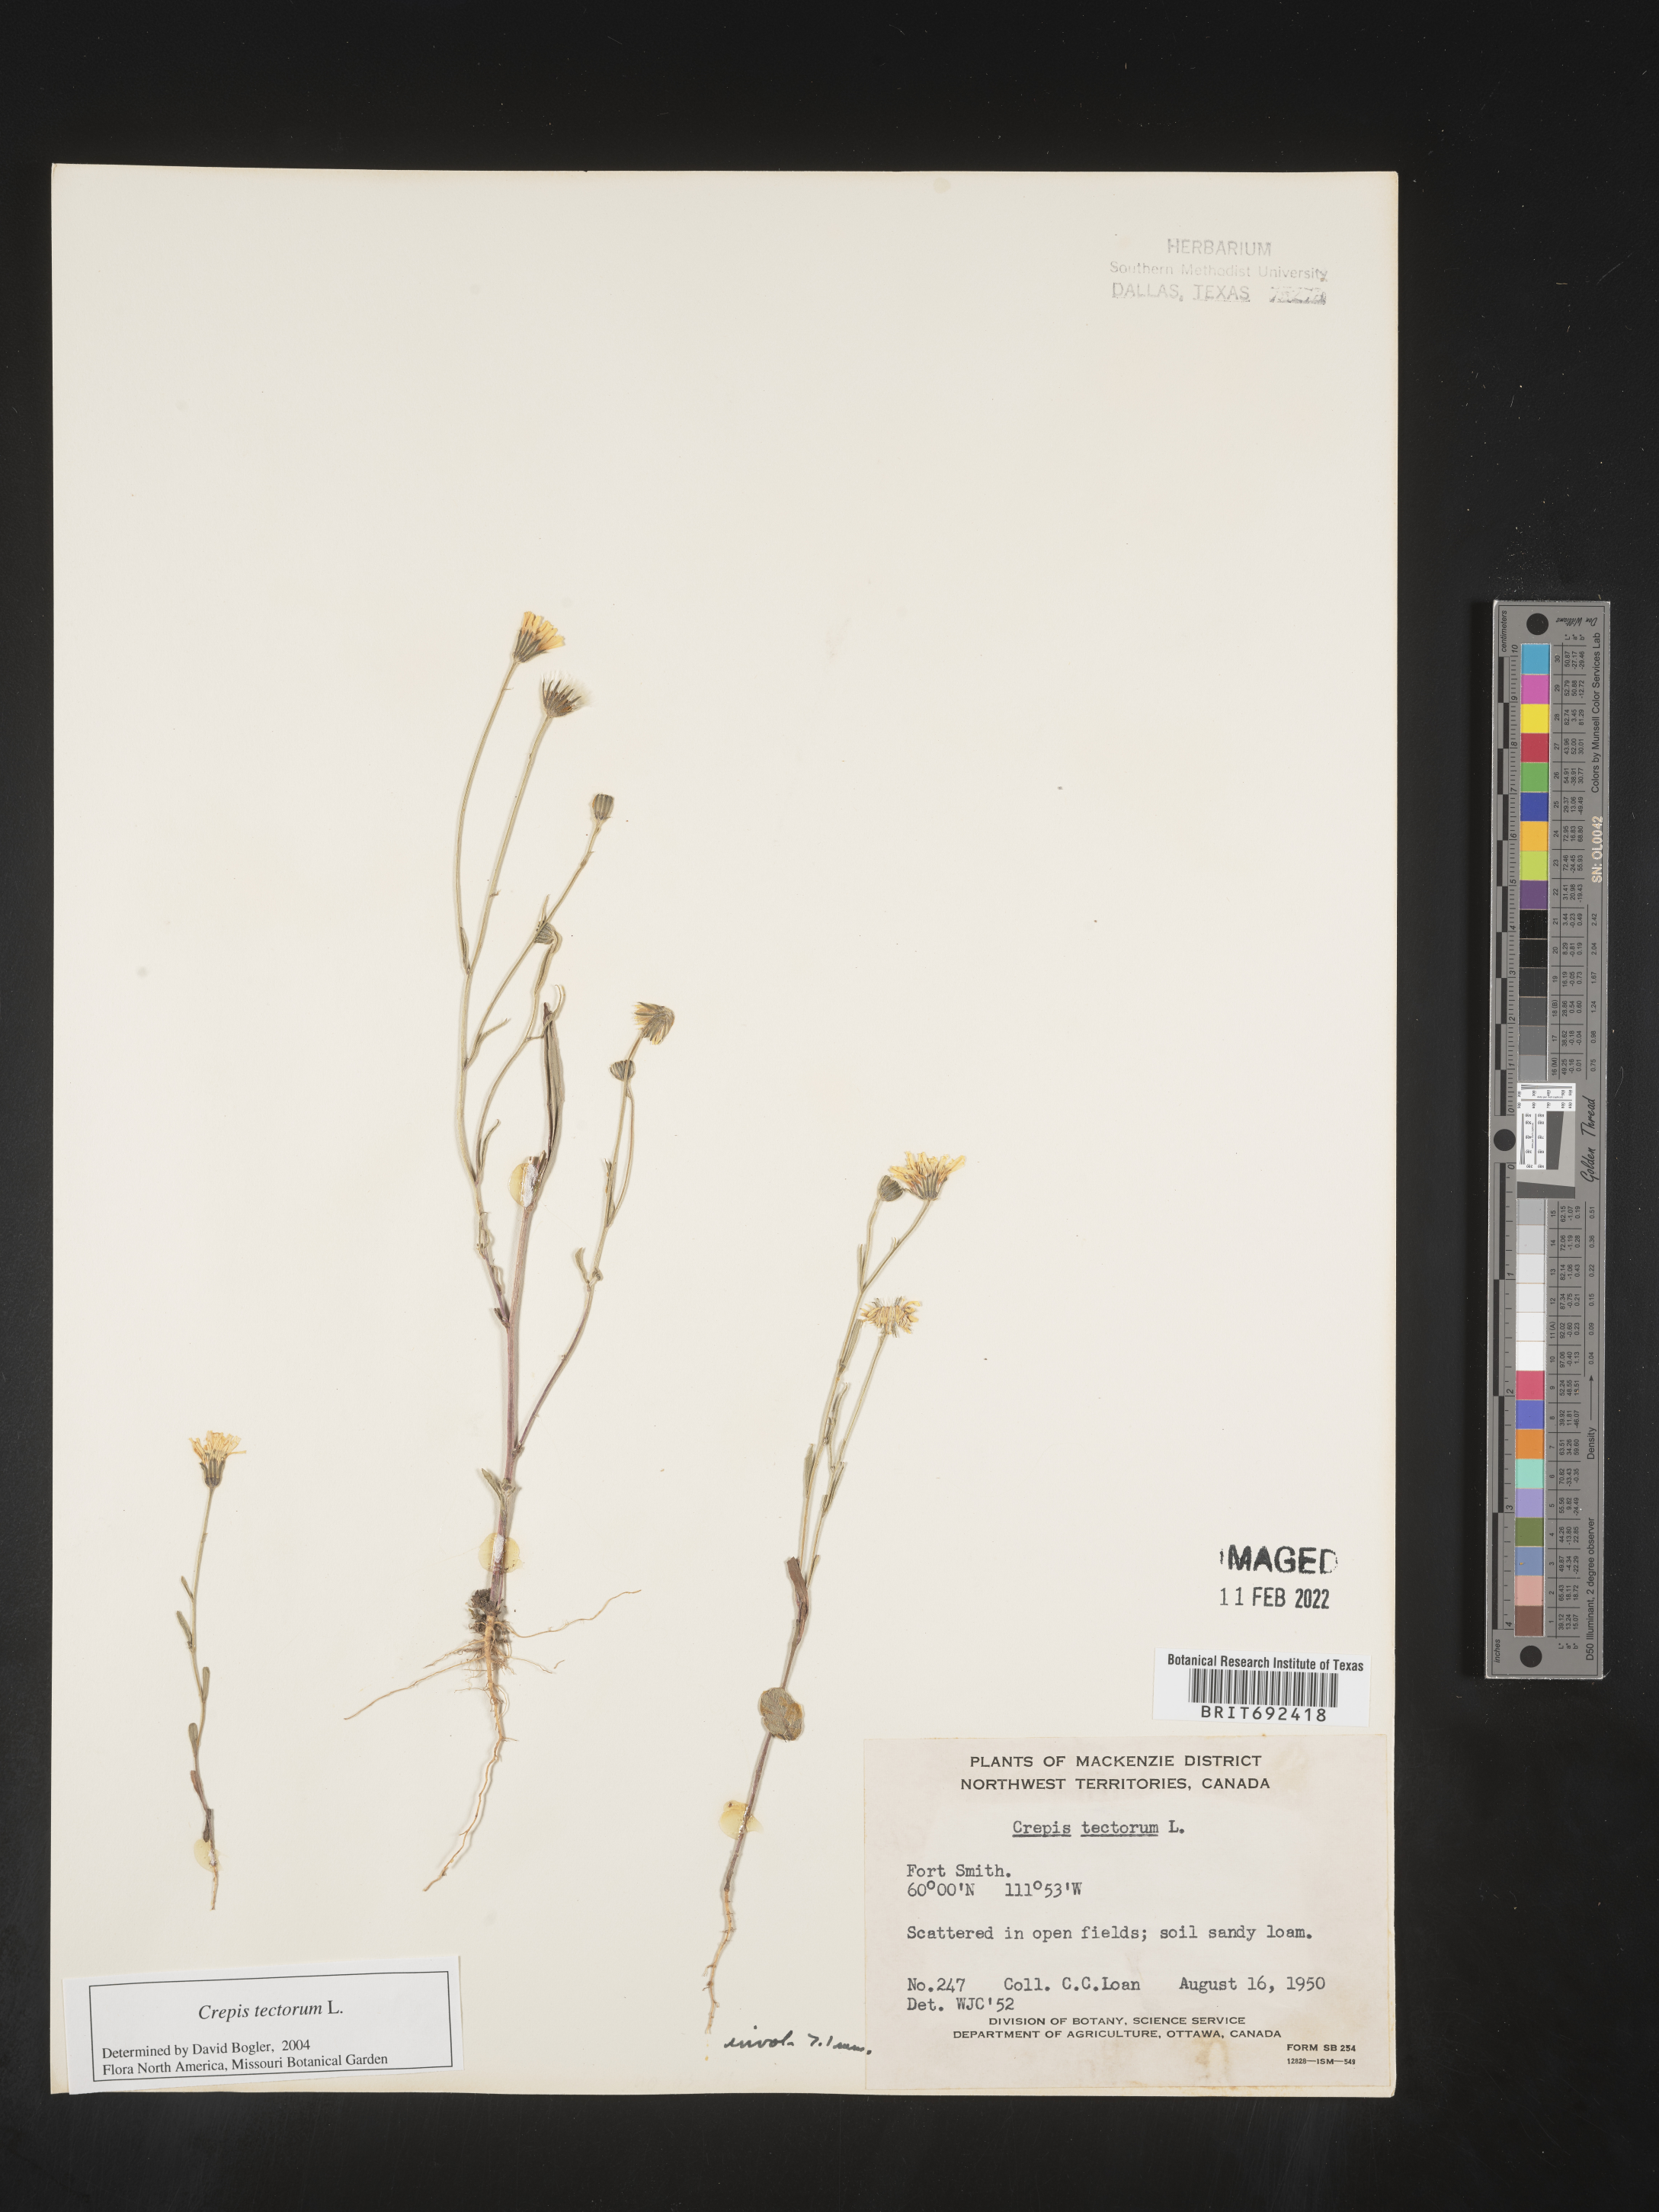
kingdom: Plantae
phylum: Tracheophyta
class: Magnoliopsida
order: Asterales
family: Asteraceae
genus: Crepis
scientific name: Crepis
